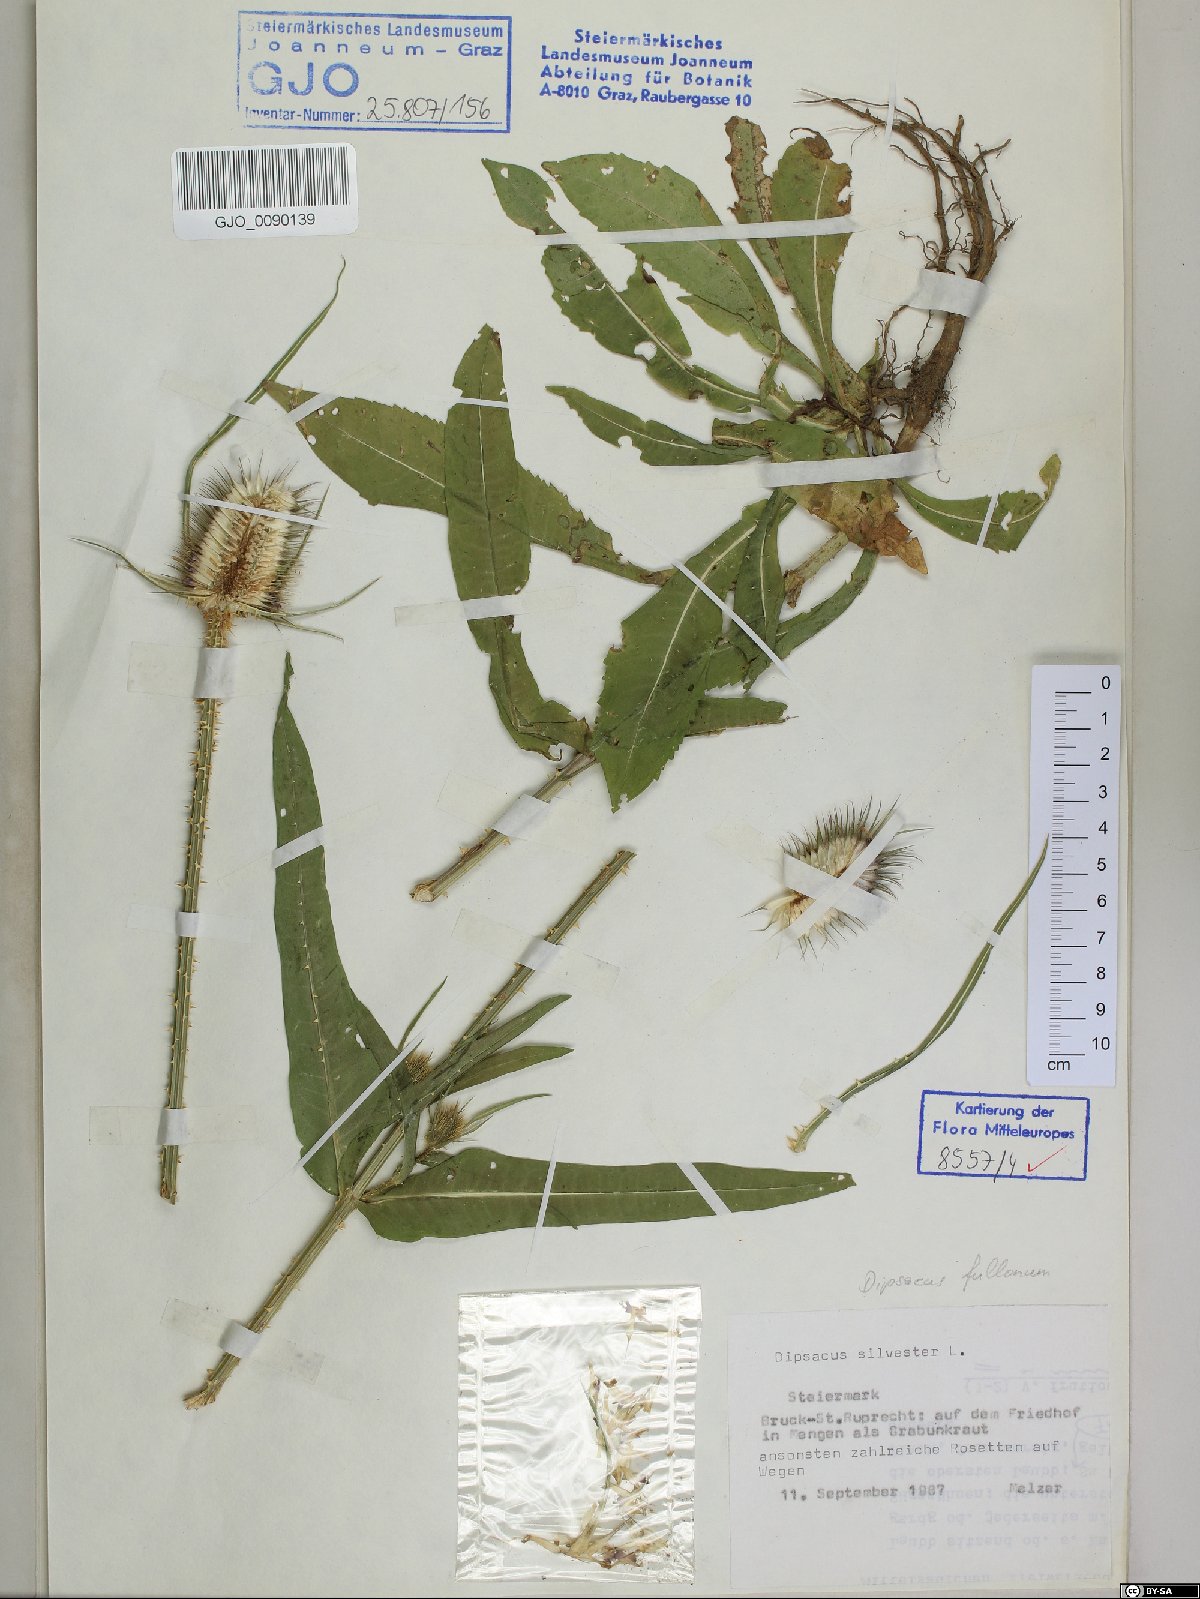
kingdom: Plantae
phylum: Tracheophyta
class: Magnoliopsida
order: Dipsacales
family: Caprifoliaceae
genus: Dipsacus
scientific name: Dipsacus fullonum
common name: Teasel
